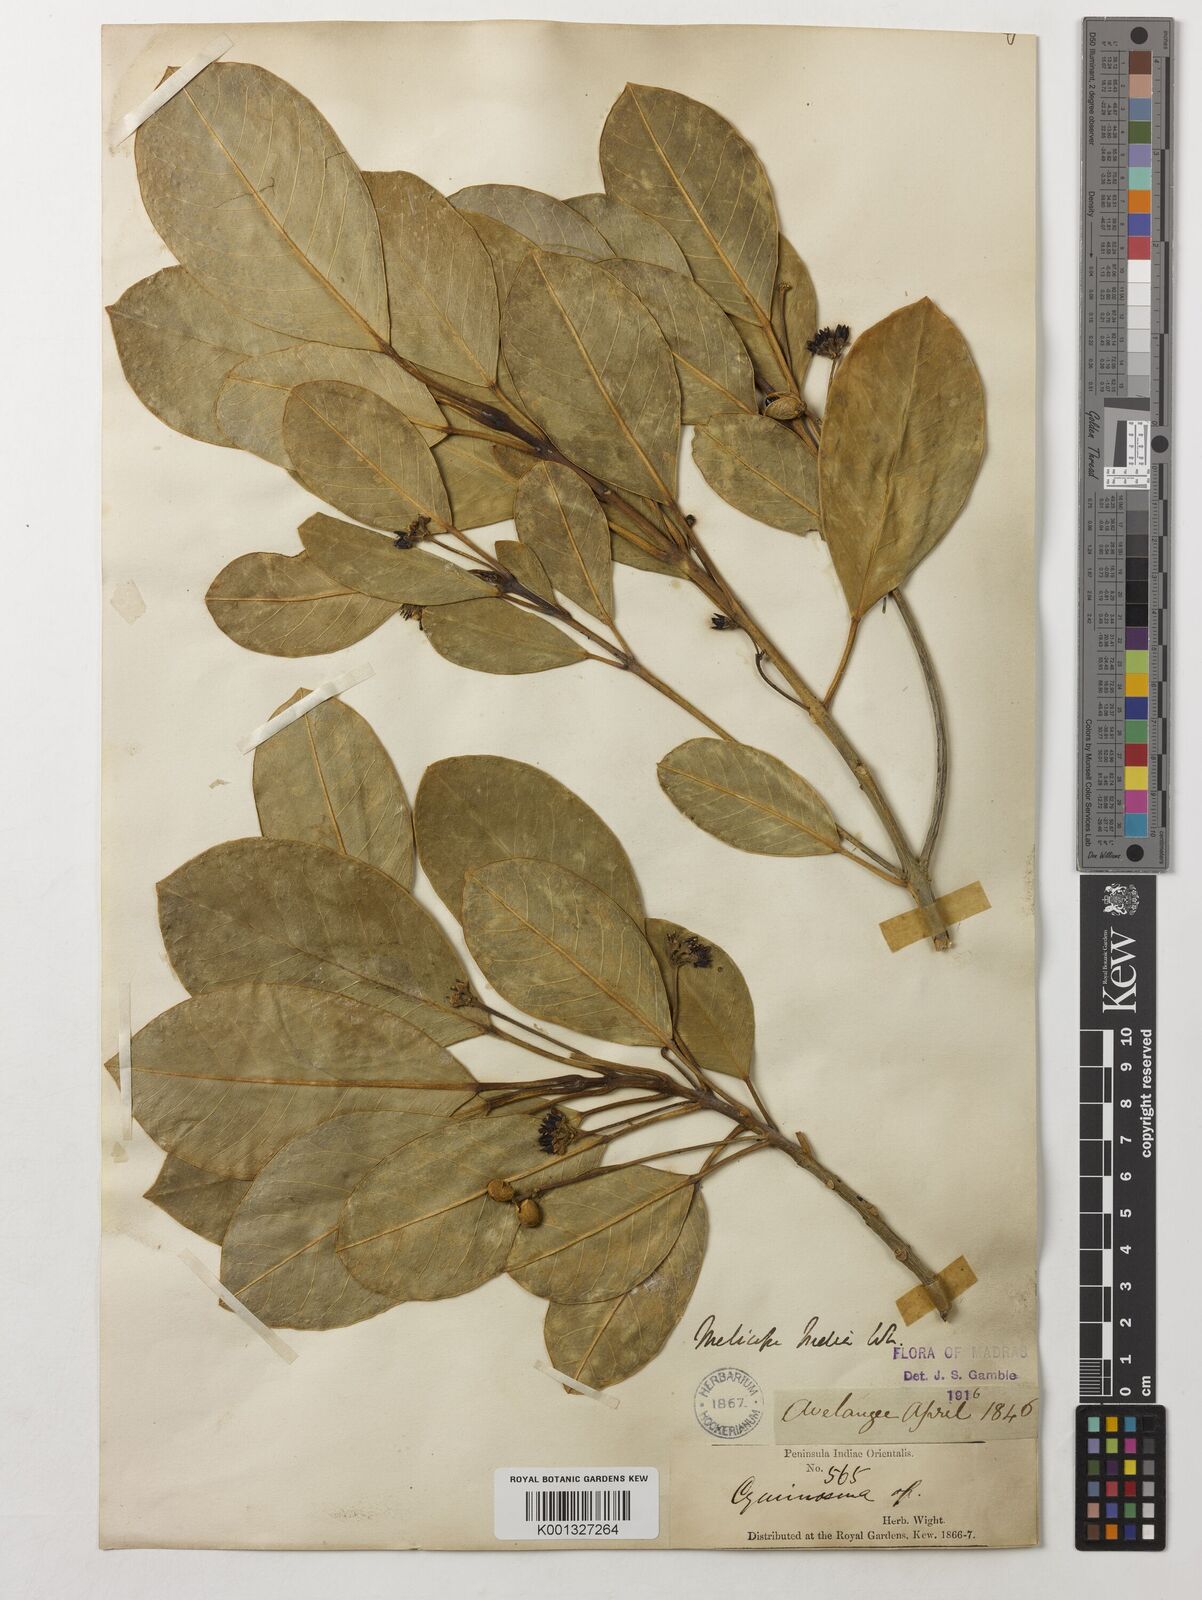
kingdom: Plantae
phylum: Tracheophyta
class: Magnoliopsida
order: Sapindales
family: Rutaceae
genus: Melicope
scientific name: Melicope indica
